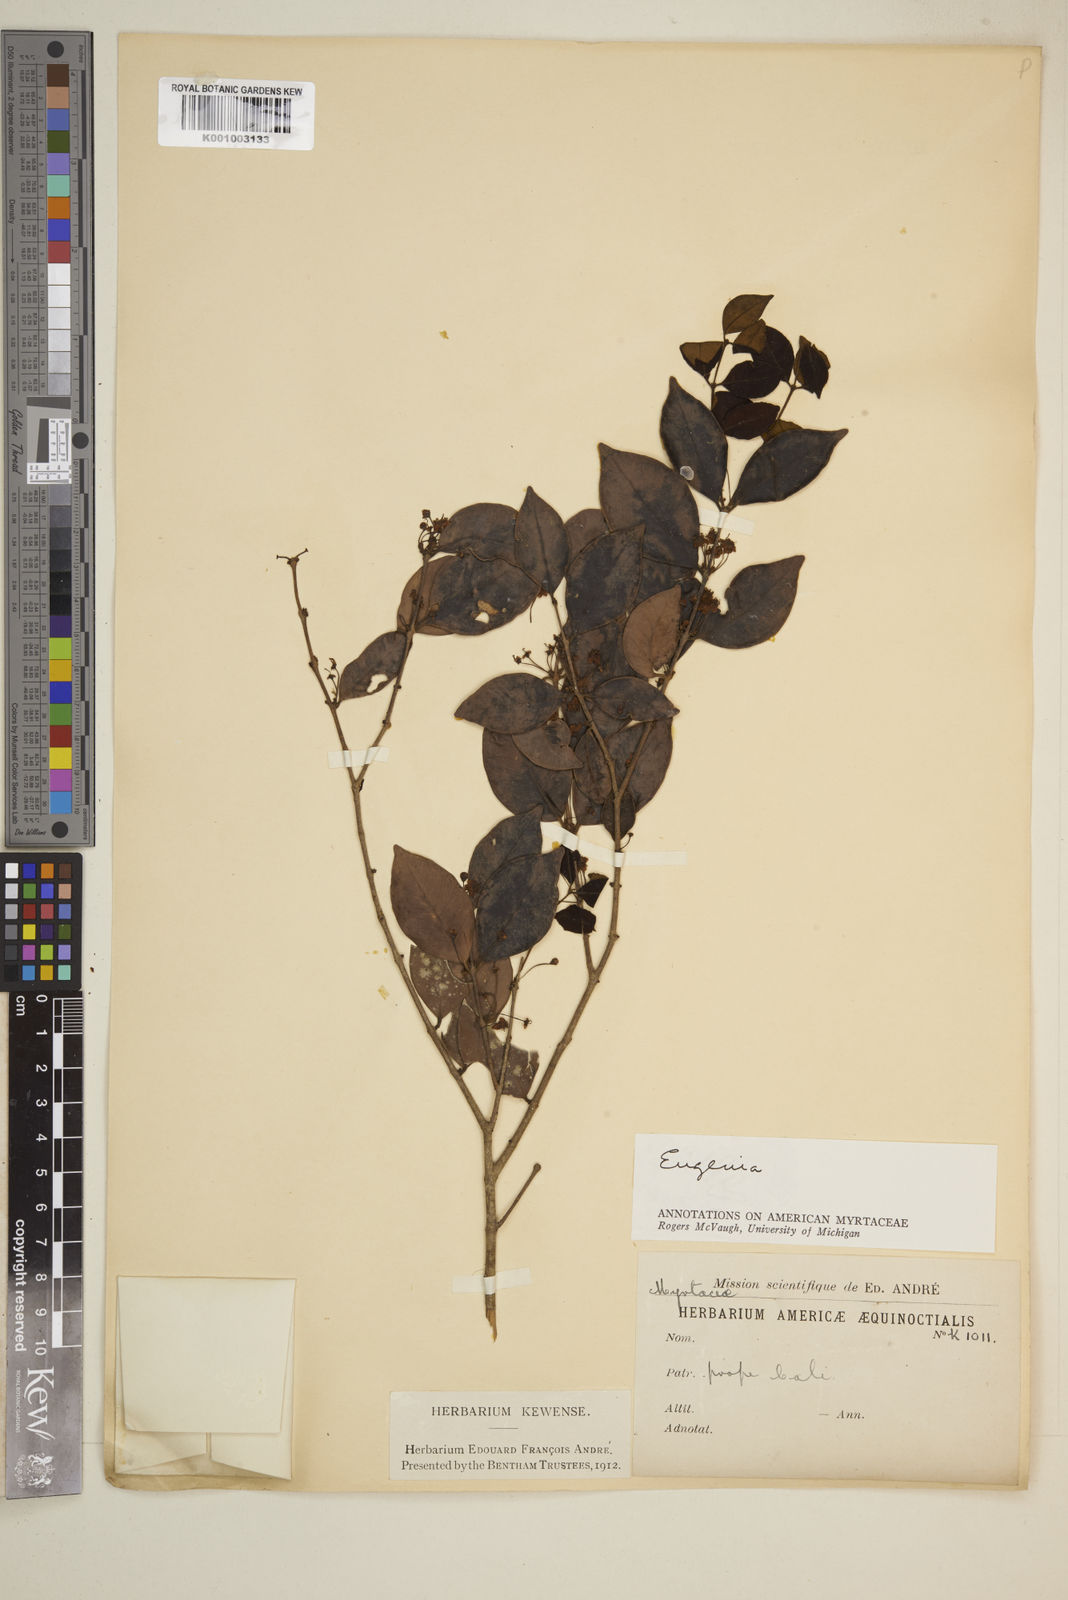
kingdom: Plantae
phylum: Tracheophyta
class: Magnoliopsida
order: Myrtales
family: Myrtaceae
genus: Eugenia
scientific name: Eugenia
